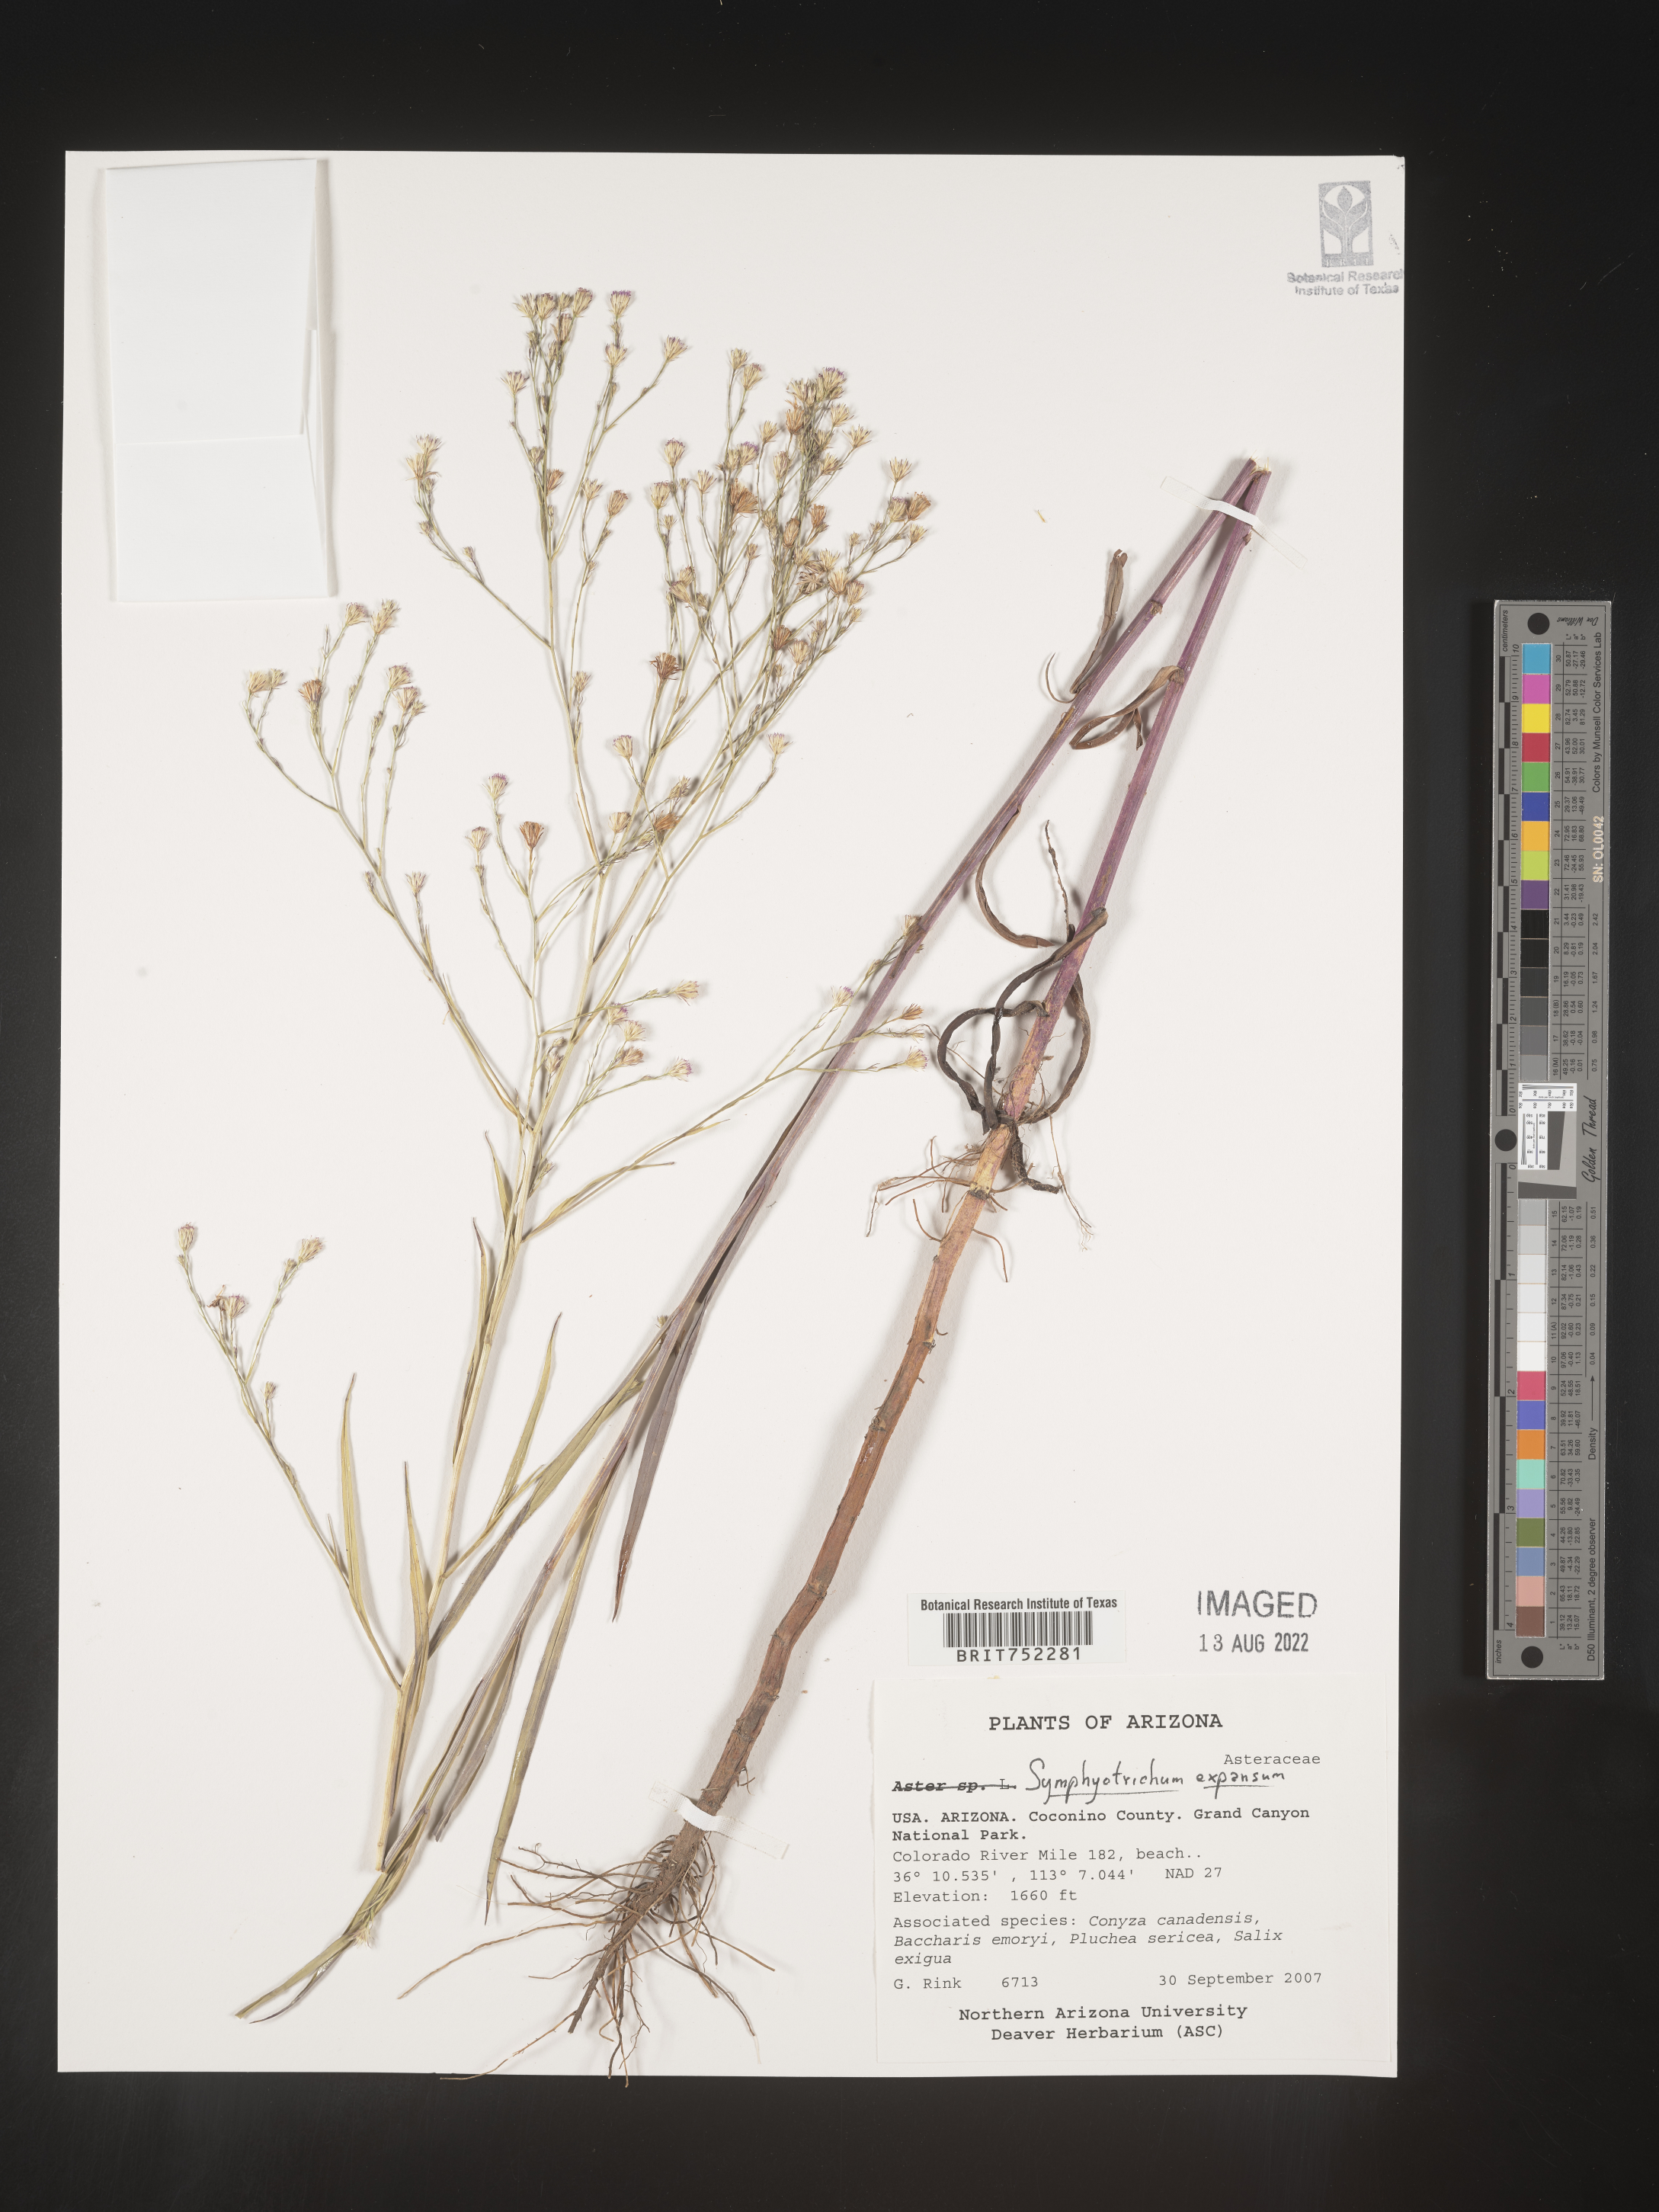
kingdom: Plantae
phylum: Tracheophyta
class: Magnoliopsida
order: Asterales
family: Asteraceae
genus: Symphyotrichum
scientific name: Symphyotrichum expansum
